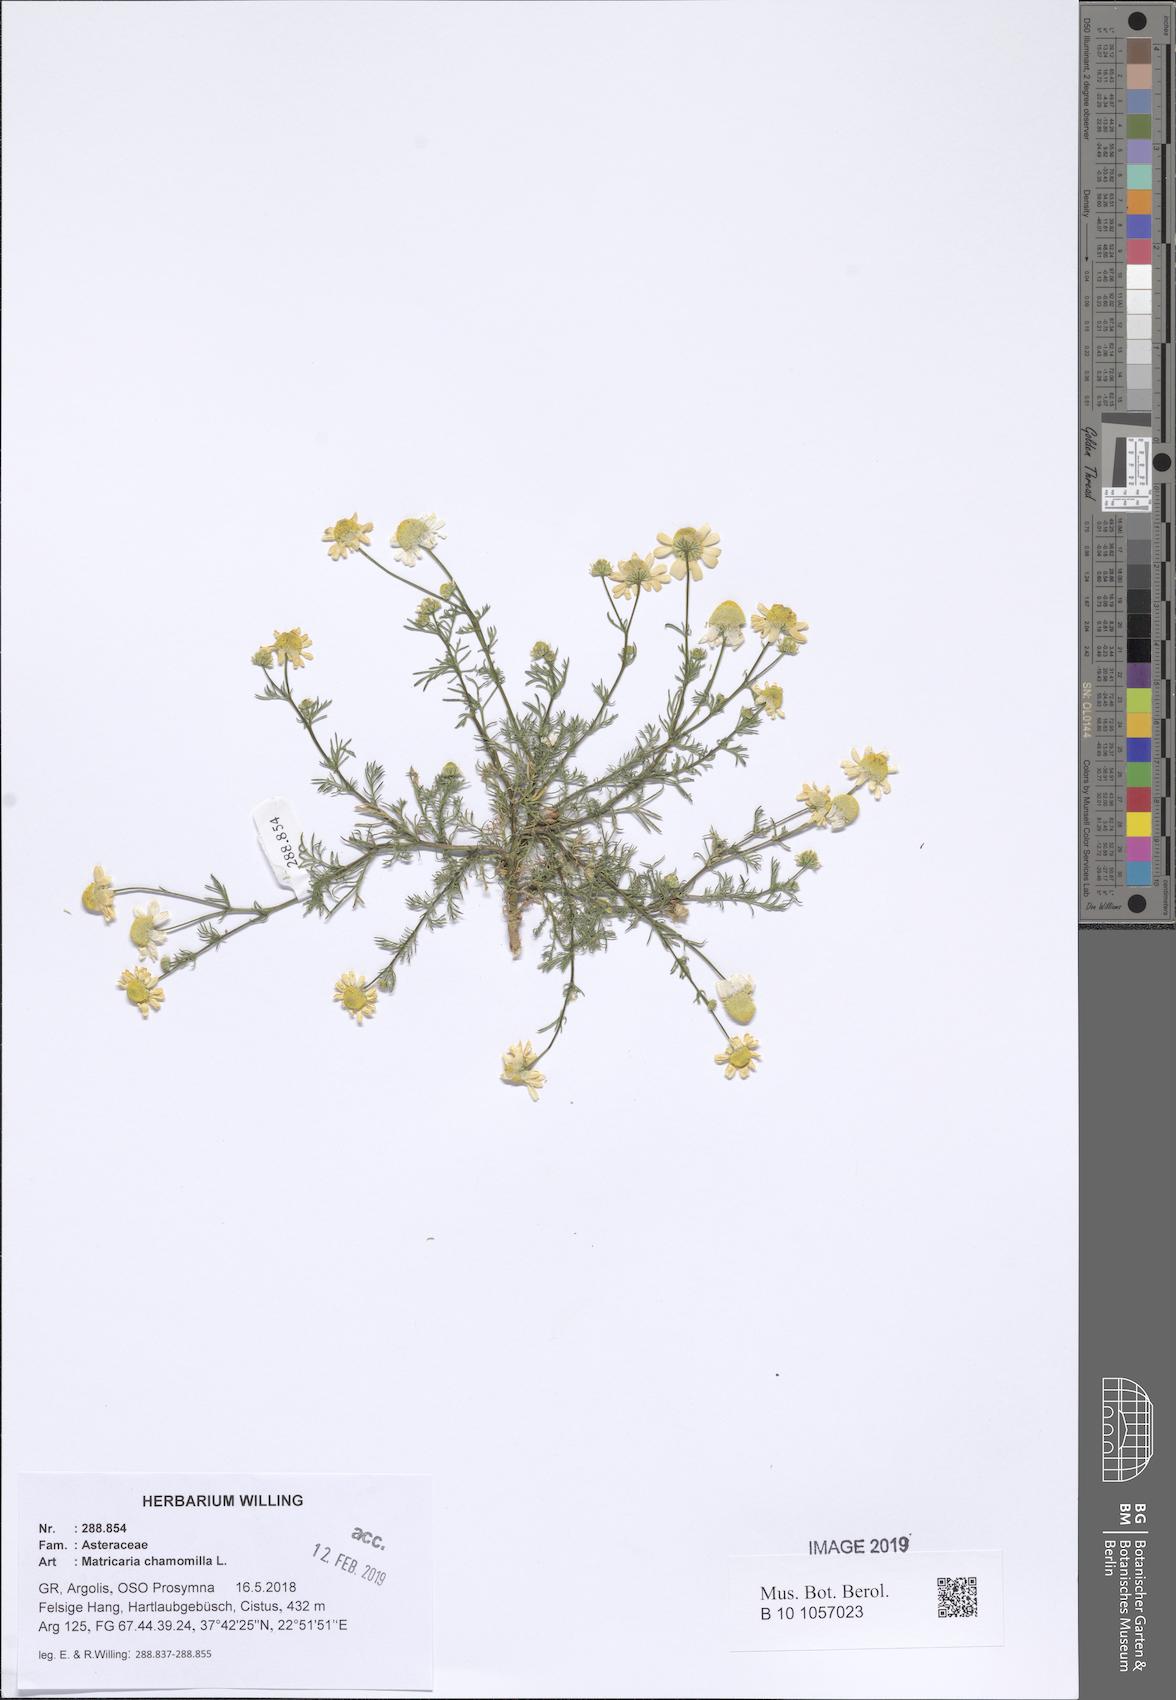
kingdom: Plantae
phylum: Tracheophyta
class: Magnoliopsida
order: Asterales
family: Asteraceae
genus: Matricaria
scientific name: Matricaria chamomilla
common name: Scented mayweed
